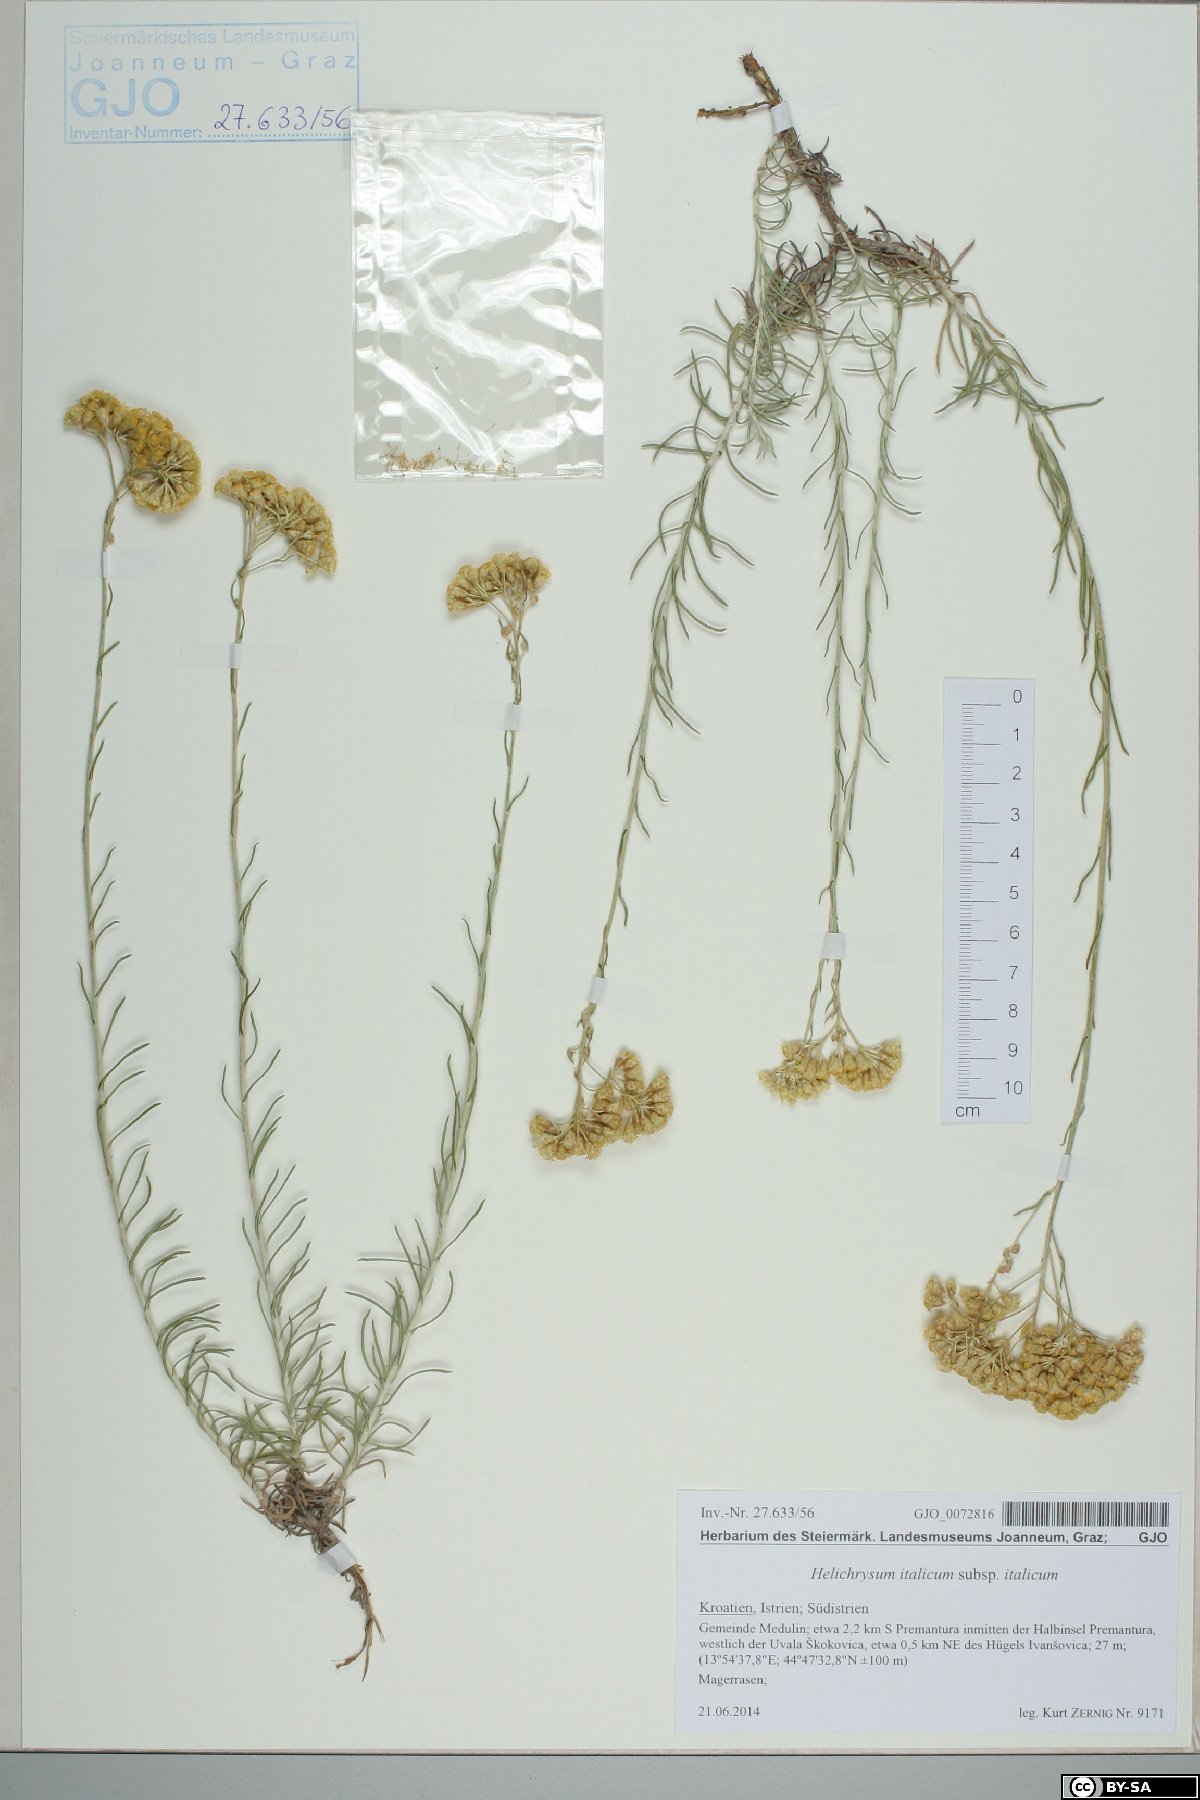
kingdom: Plantae
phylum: Tracheophyta
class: Magnoliopsida
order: Asterales
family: Asteraceae
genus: Helichrysum
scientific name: Helichrysum italicum
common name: Curryplant
